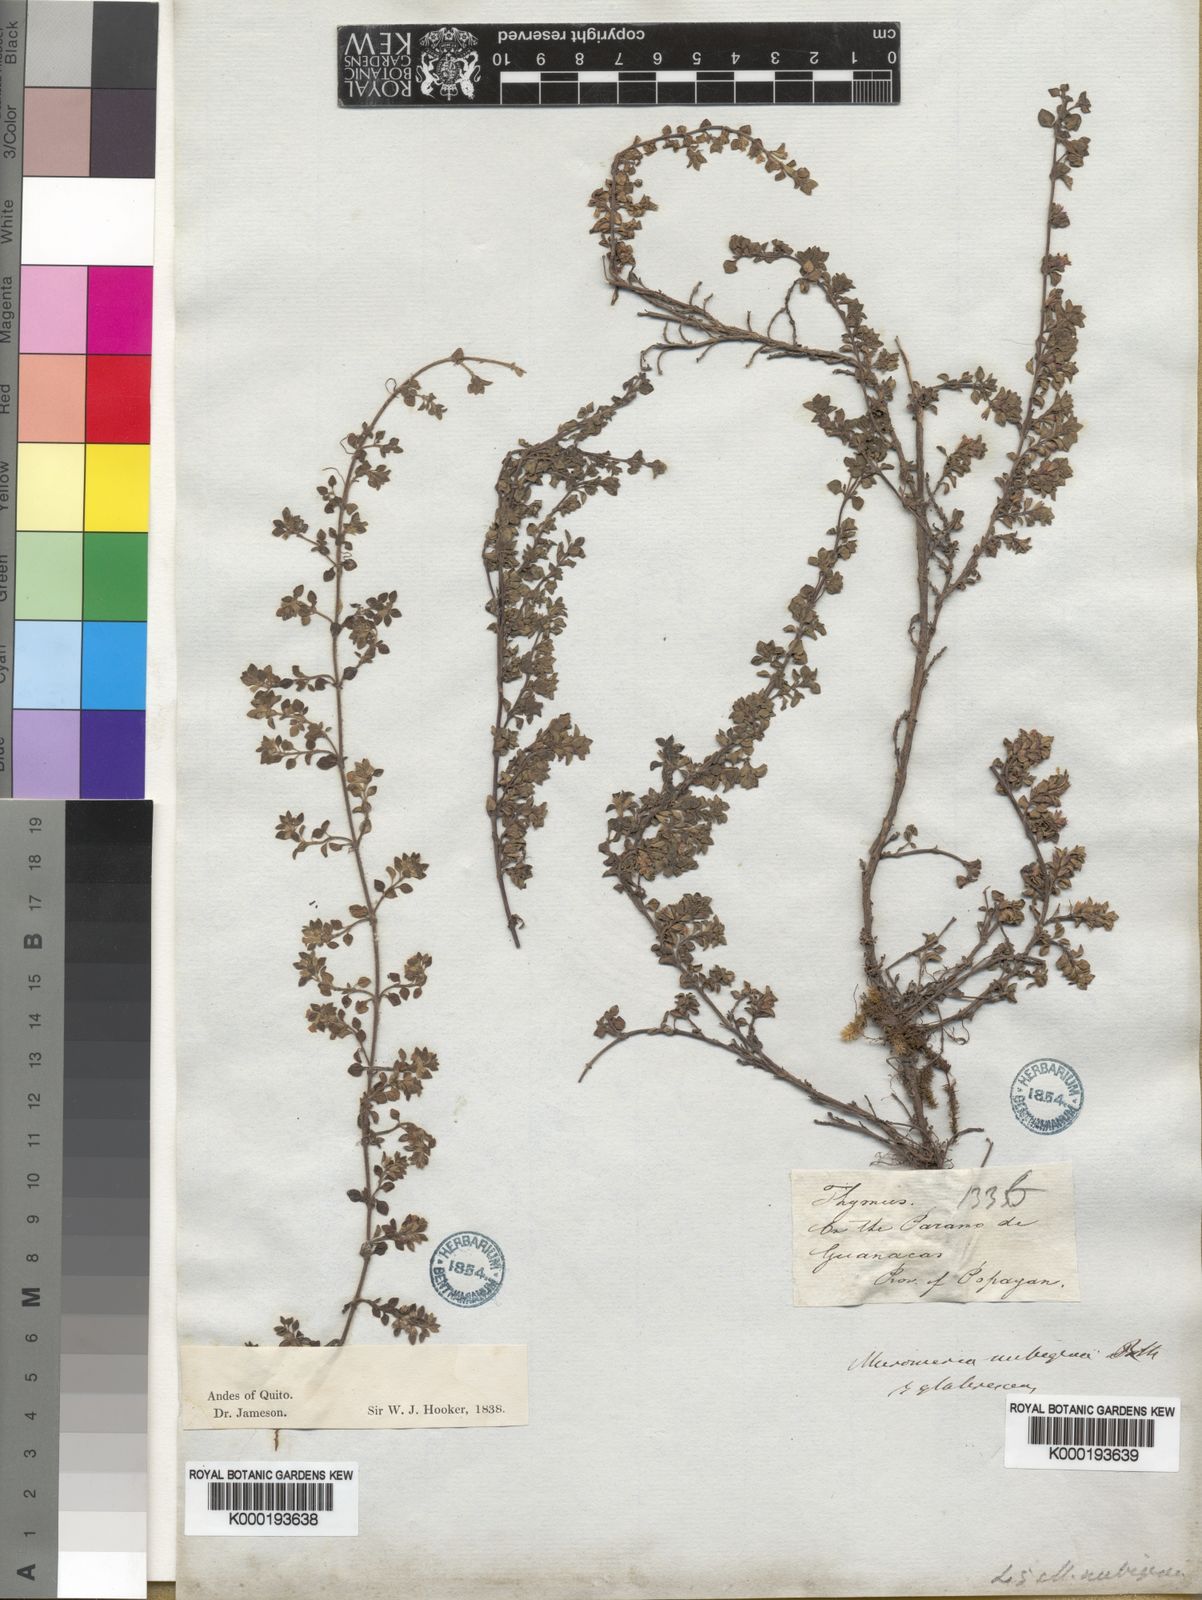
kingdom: Plantae
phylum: Tracheophyta
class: Magnoliopsida
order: Lamiales
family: Lamiaceae
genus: Micromeria
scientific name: Micromeria
